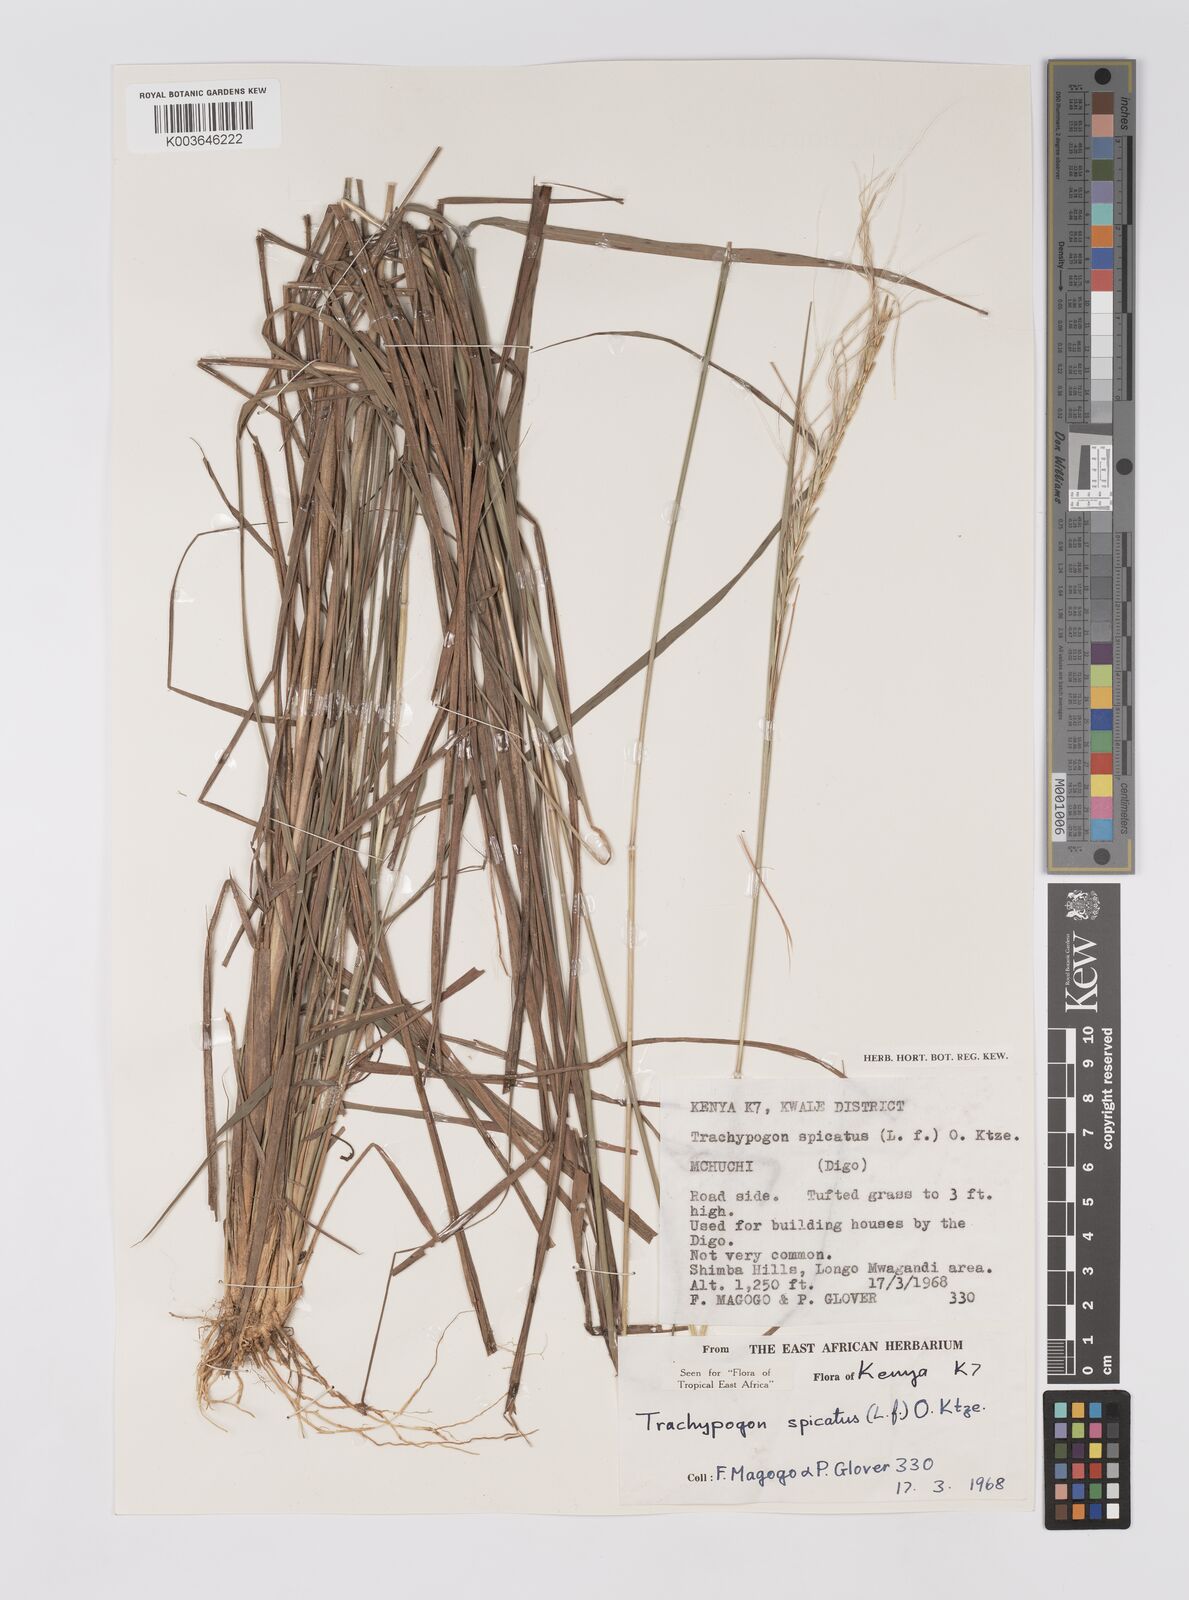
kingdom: Plantae
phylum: Tracheophyta
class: Liliopsida
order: Poales
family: Poaceae
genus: Trachypogon
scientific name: Trachypogon spicatus
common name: Crinkle-awn
